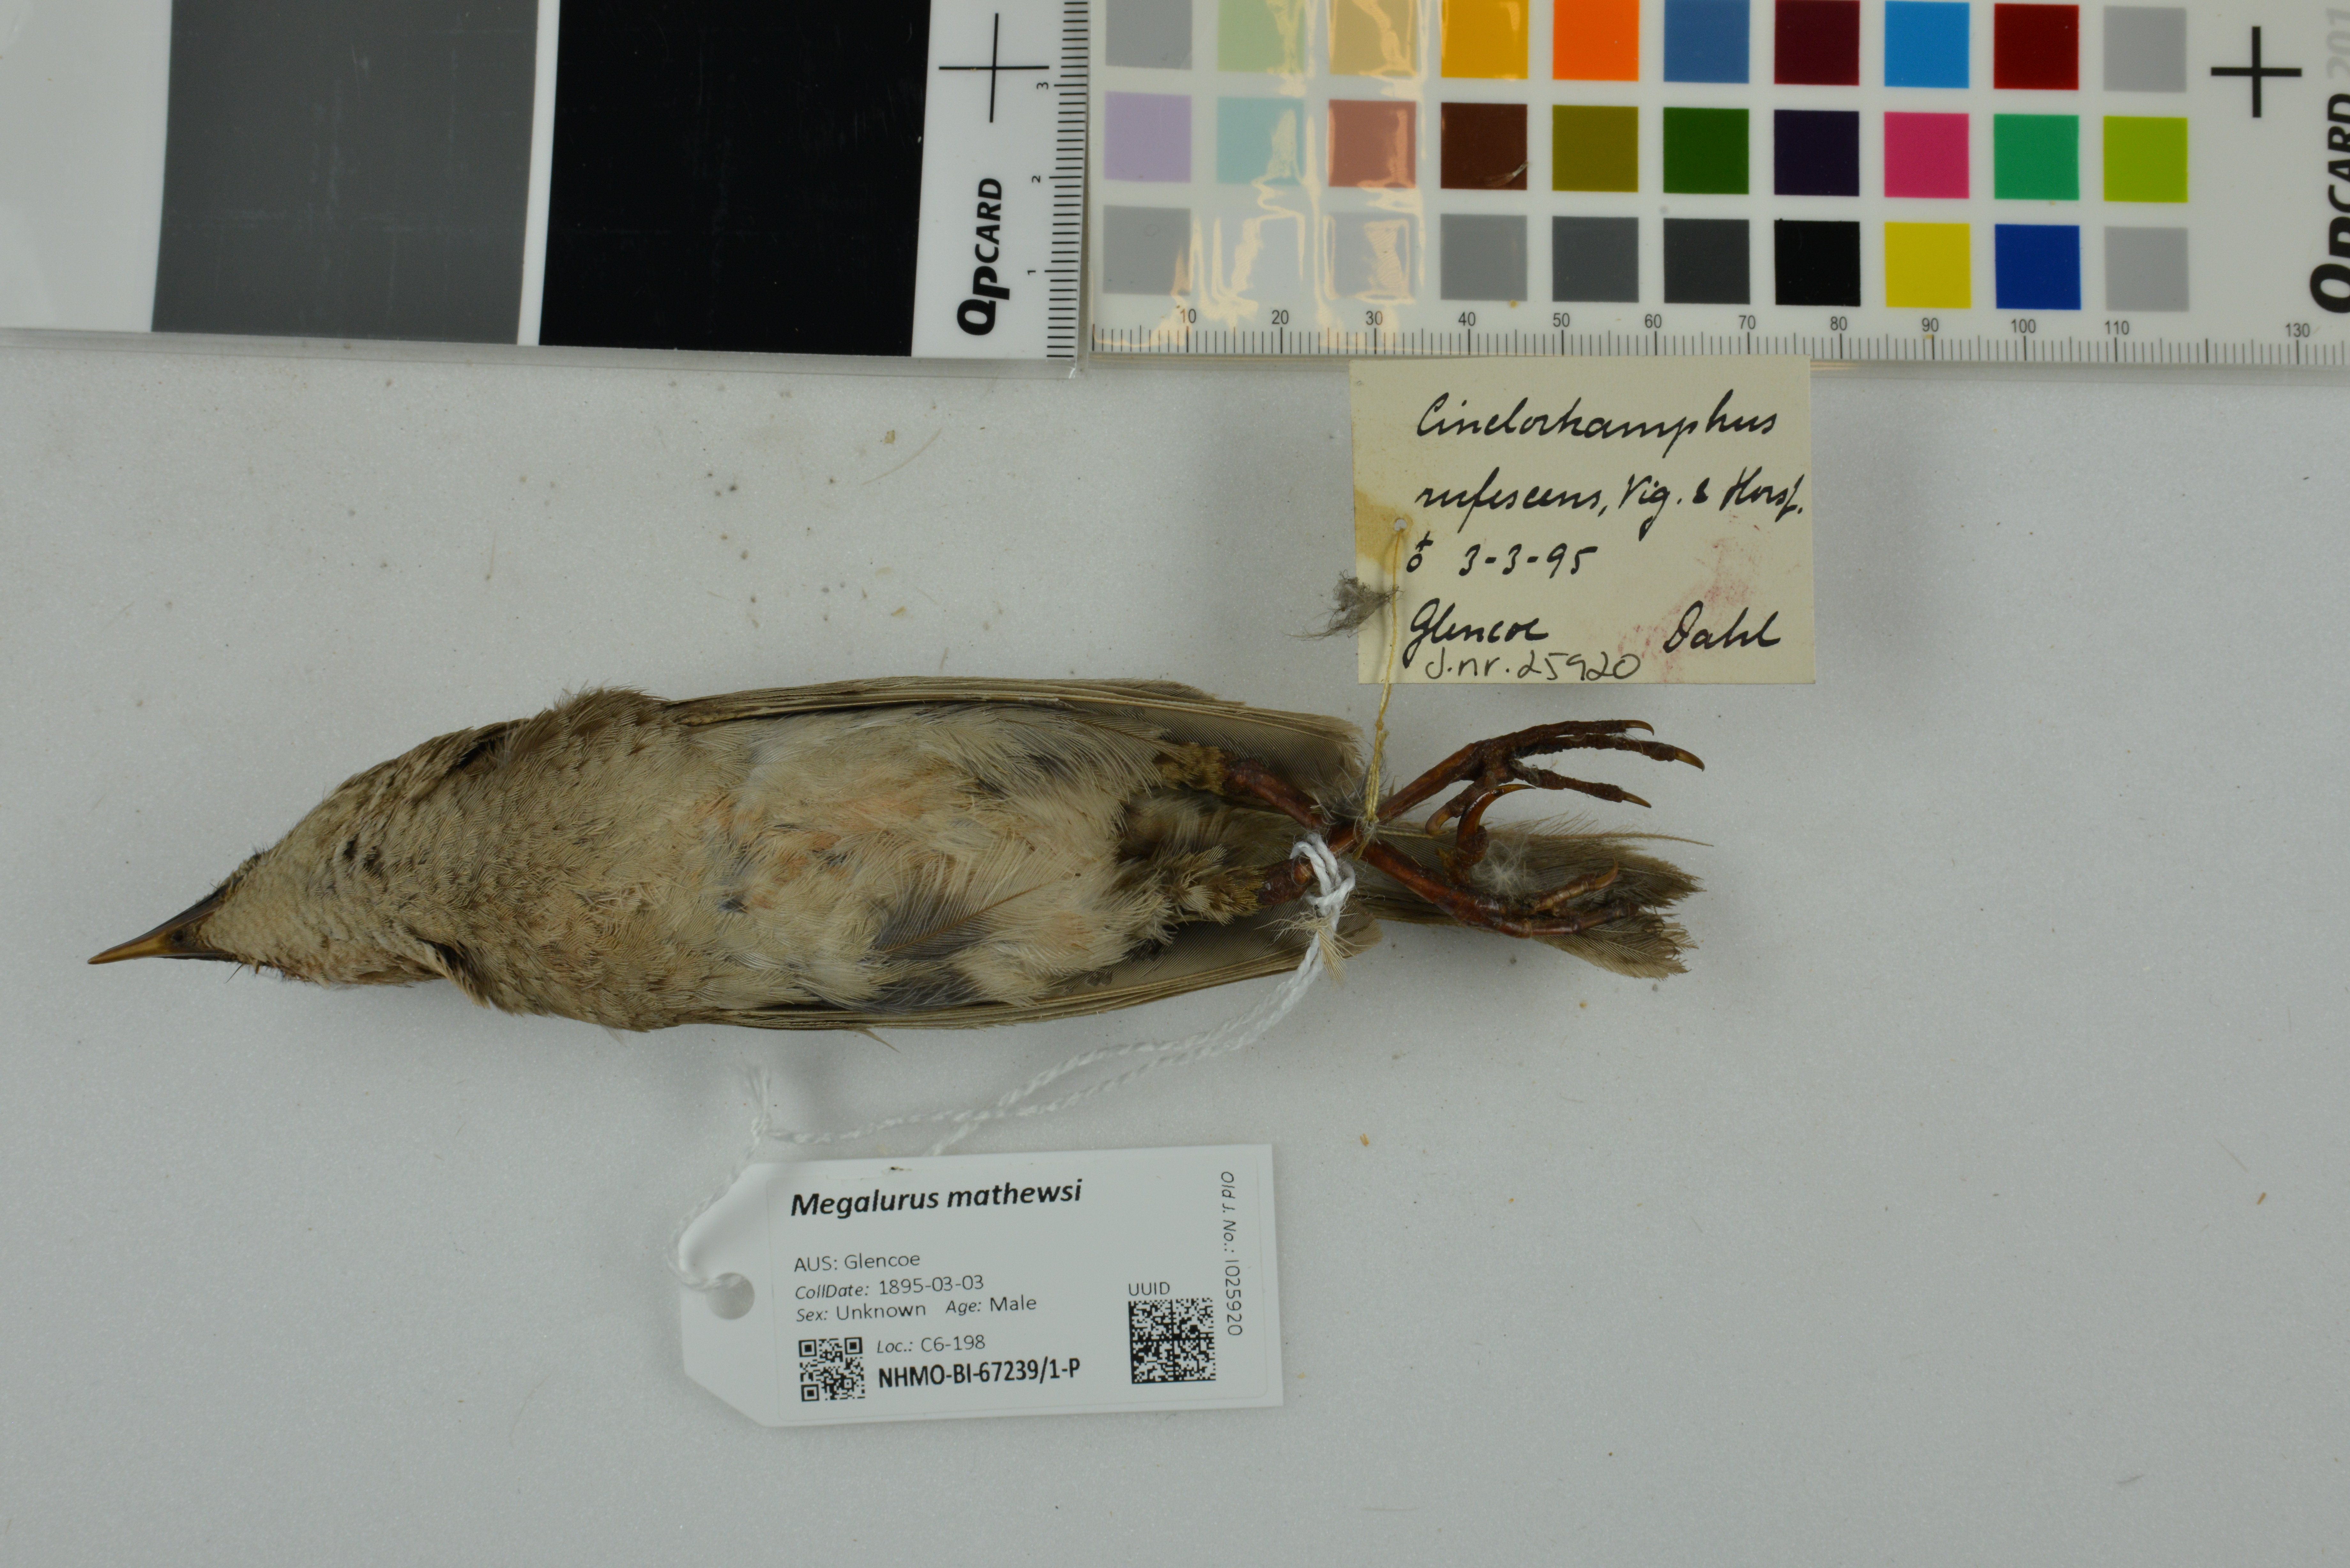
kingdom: Animalia
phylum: Chordata
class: Aves
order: Passeriformes
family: Locustellidae
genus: Megalurus
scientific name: Megalurus mathewsi
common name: Rufous songlark
